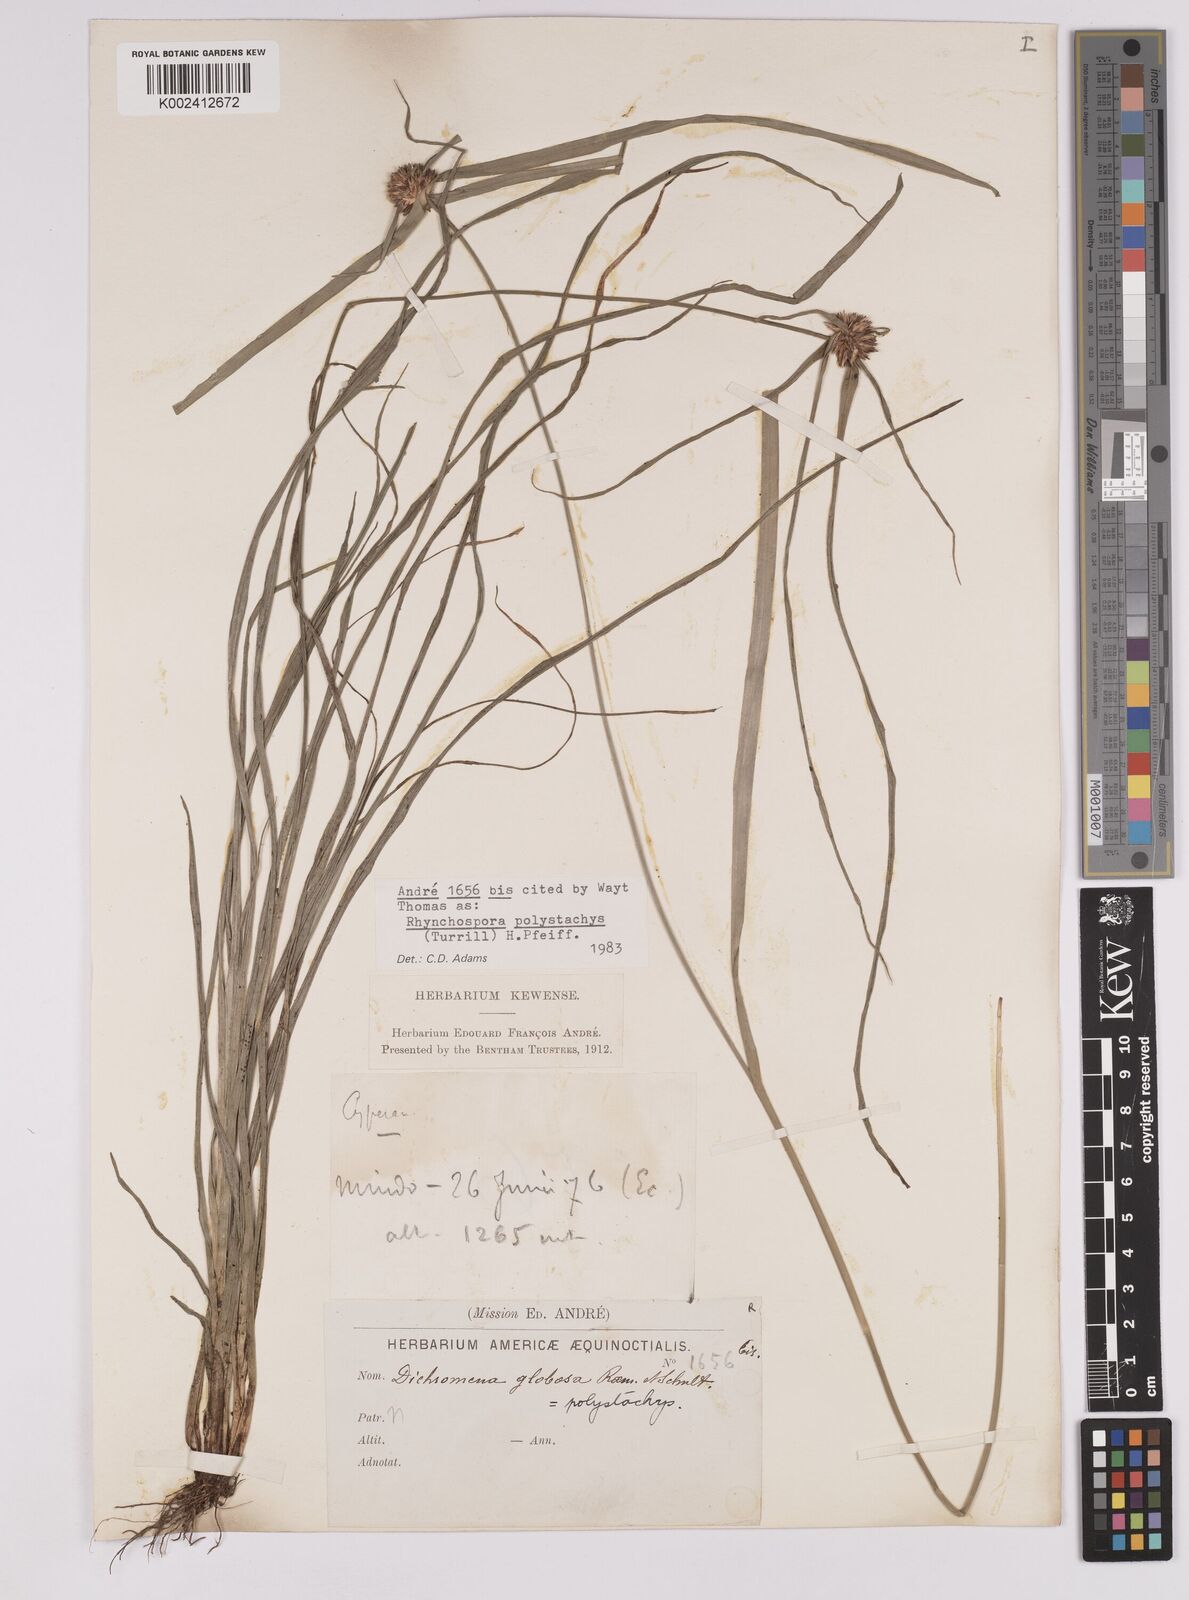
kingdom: Plantae
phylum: Tracheophyta
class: Liliopsida
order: Poales
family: Cyperaceae
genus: Rhynchospora
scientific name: Rhynchospora polystachys
